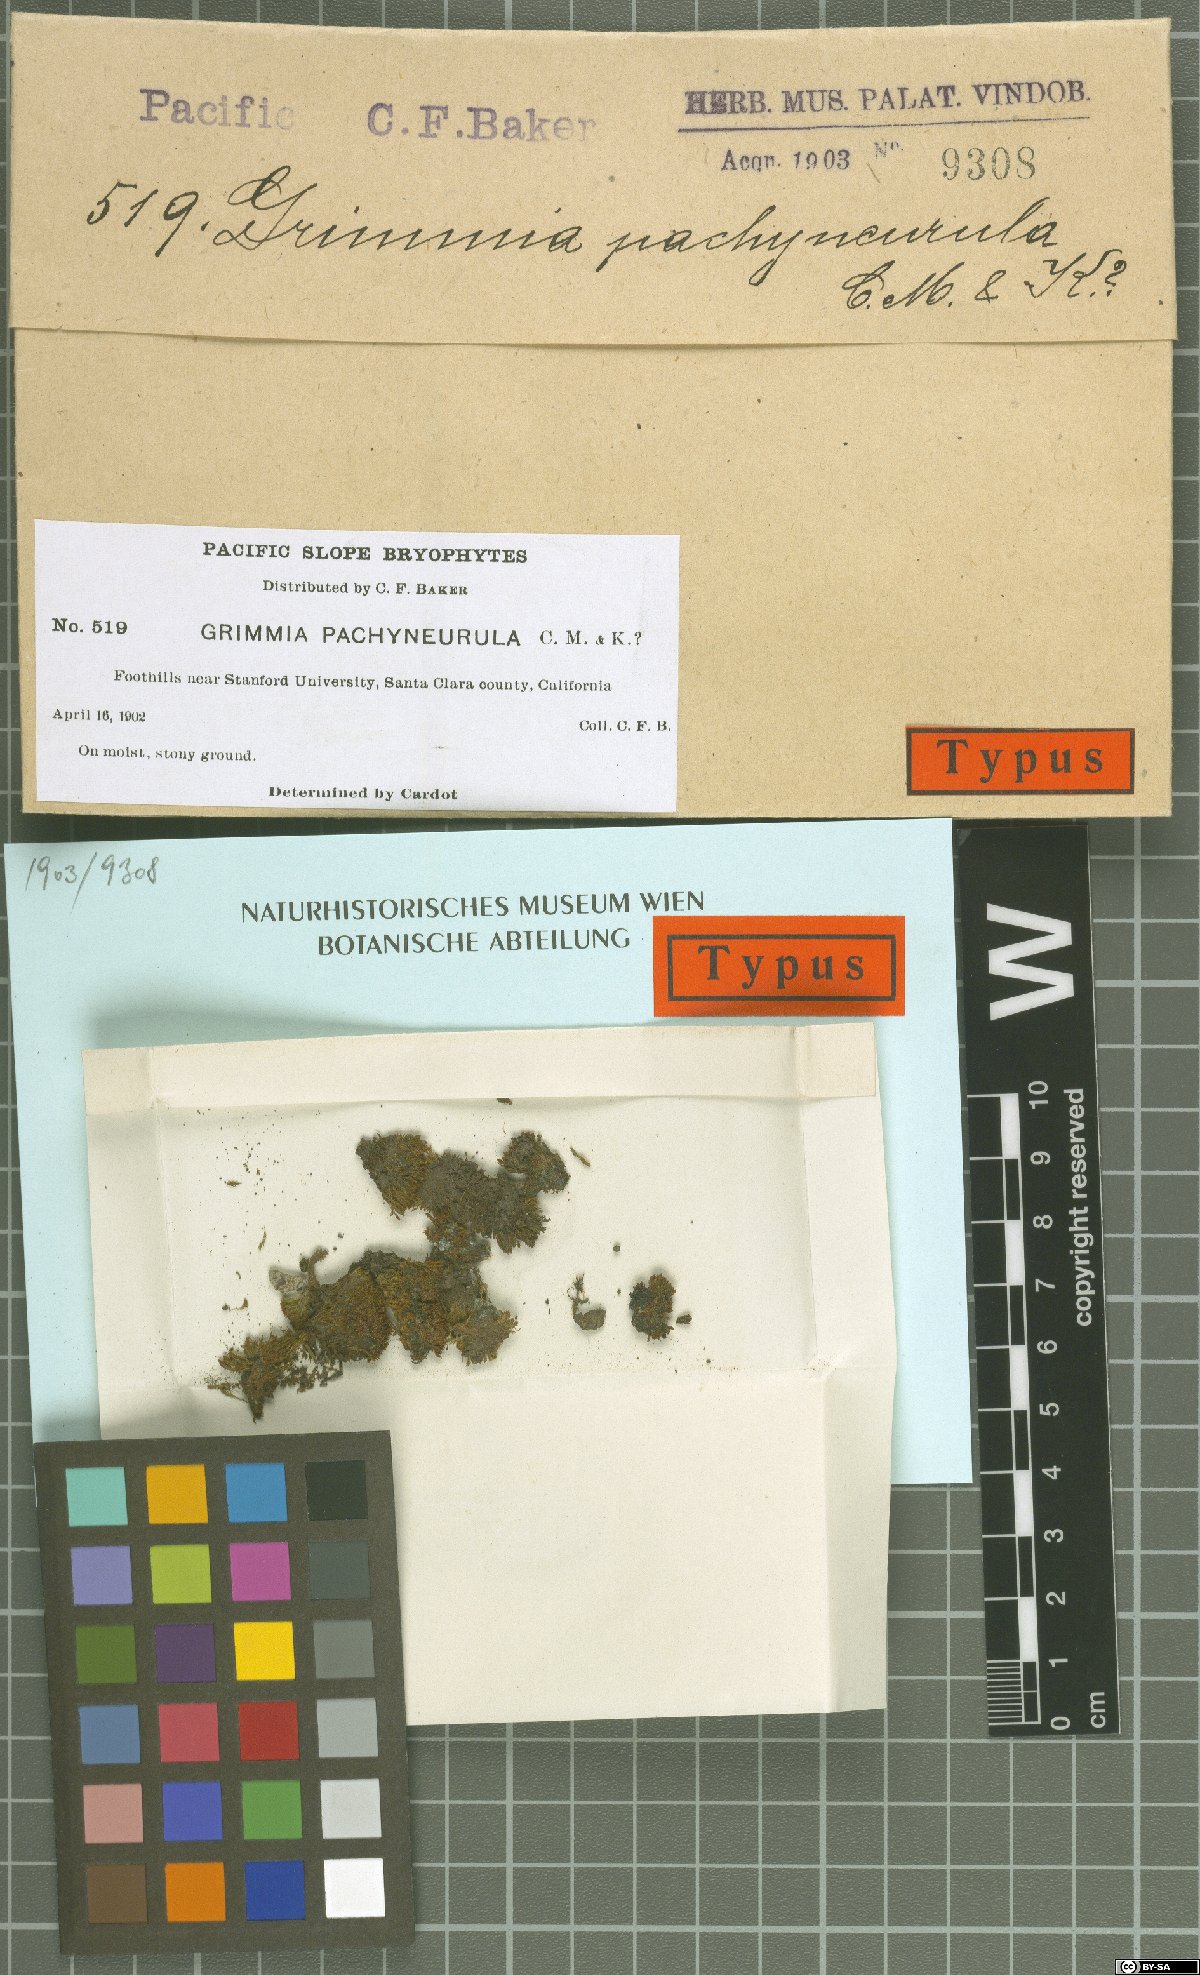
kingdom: Plantae
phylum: Bryophyta
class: Bryopsida
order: Grimmiales
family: Grimmiaceae
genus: Grimmia
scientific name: Grimmia anomala
